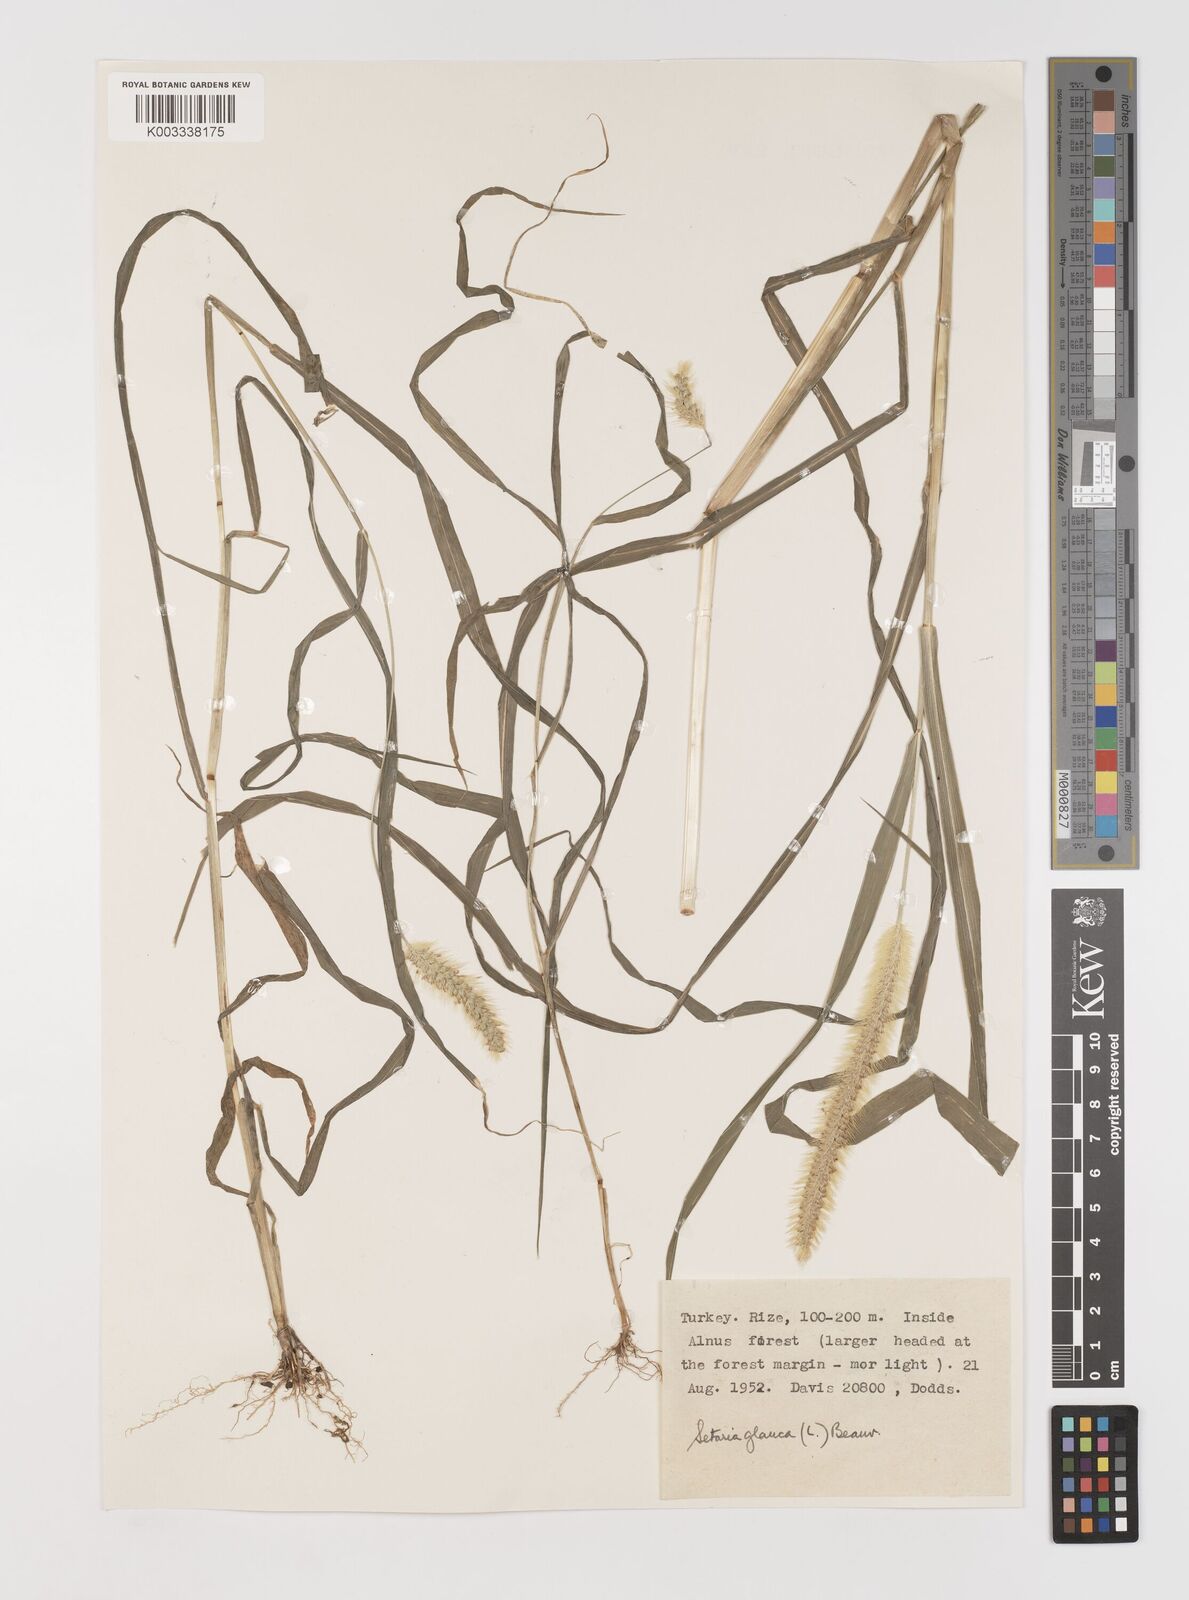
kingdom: Plantae
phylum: Tracheophyta
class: Liliopsida
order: Poales
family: Poaceae
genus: Setaria
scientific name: Setaria pumila
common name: Yellow bristle-grass
